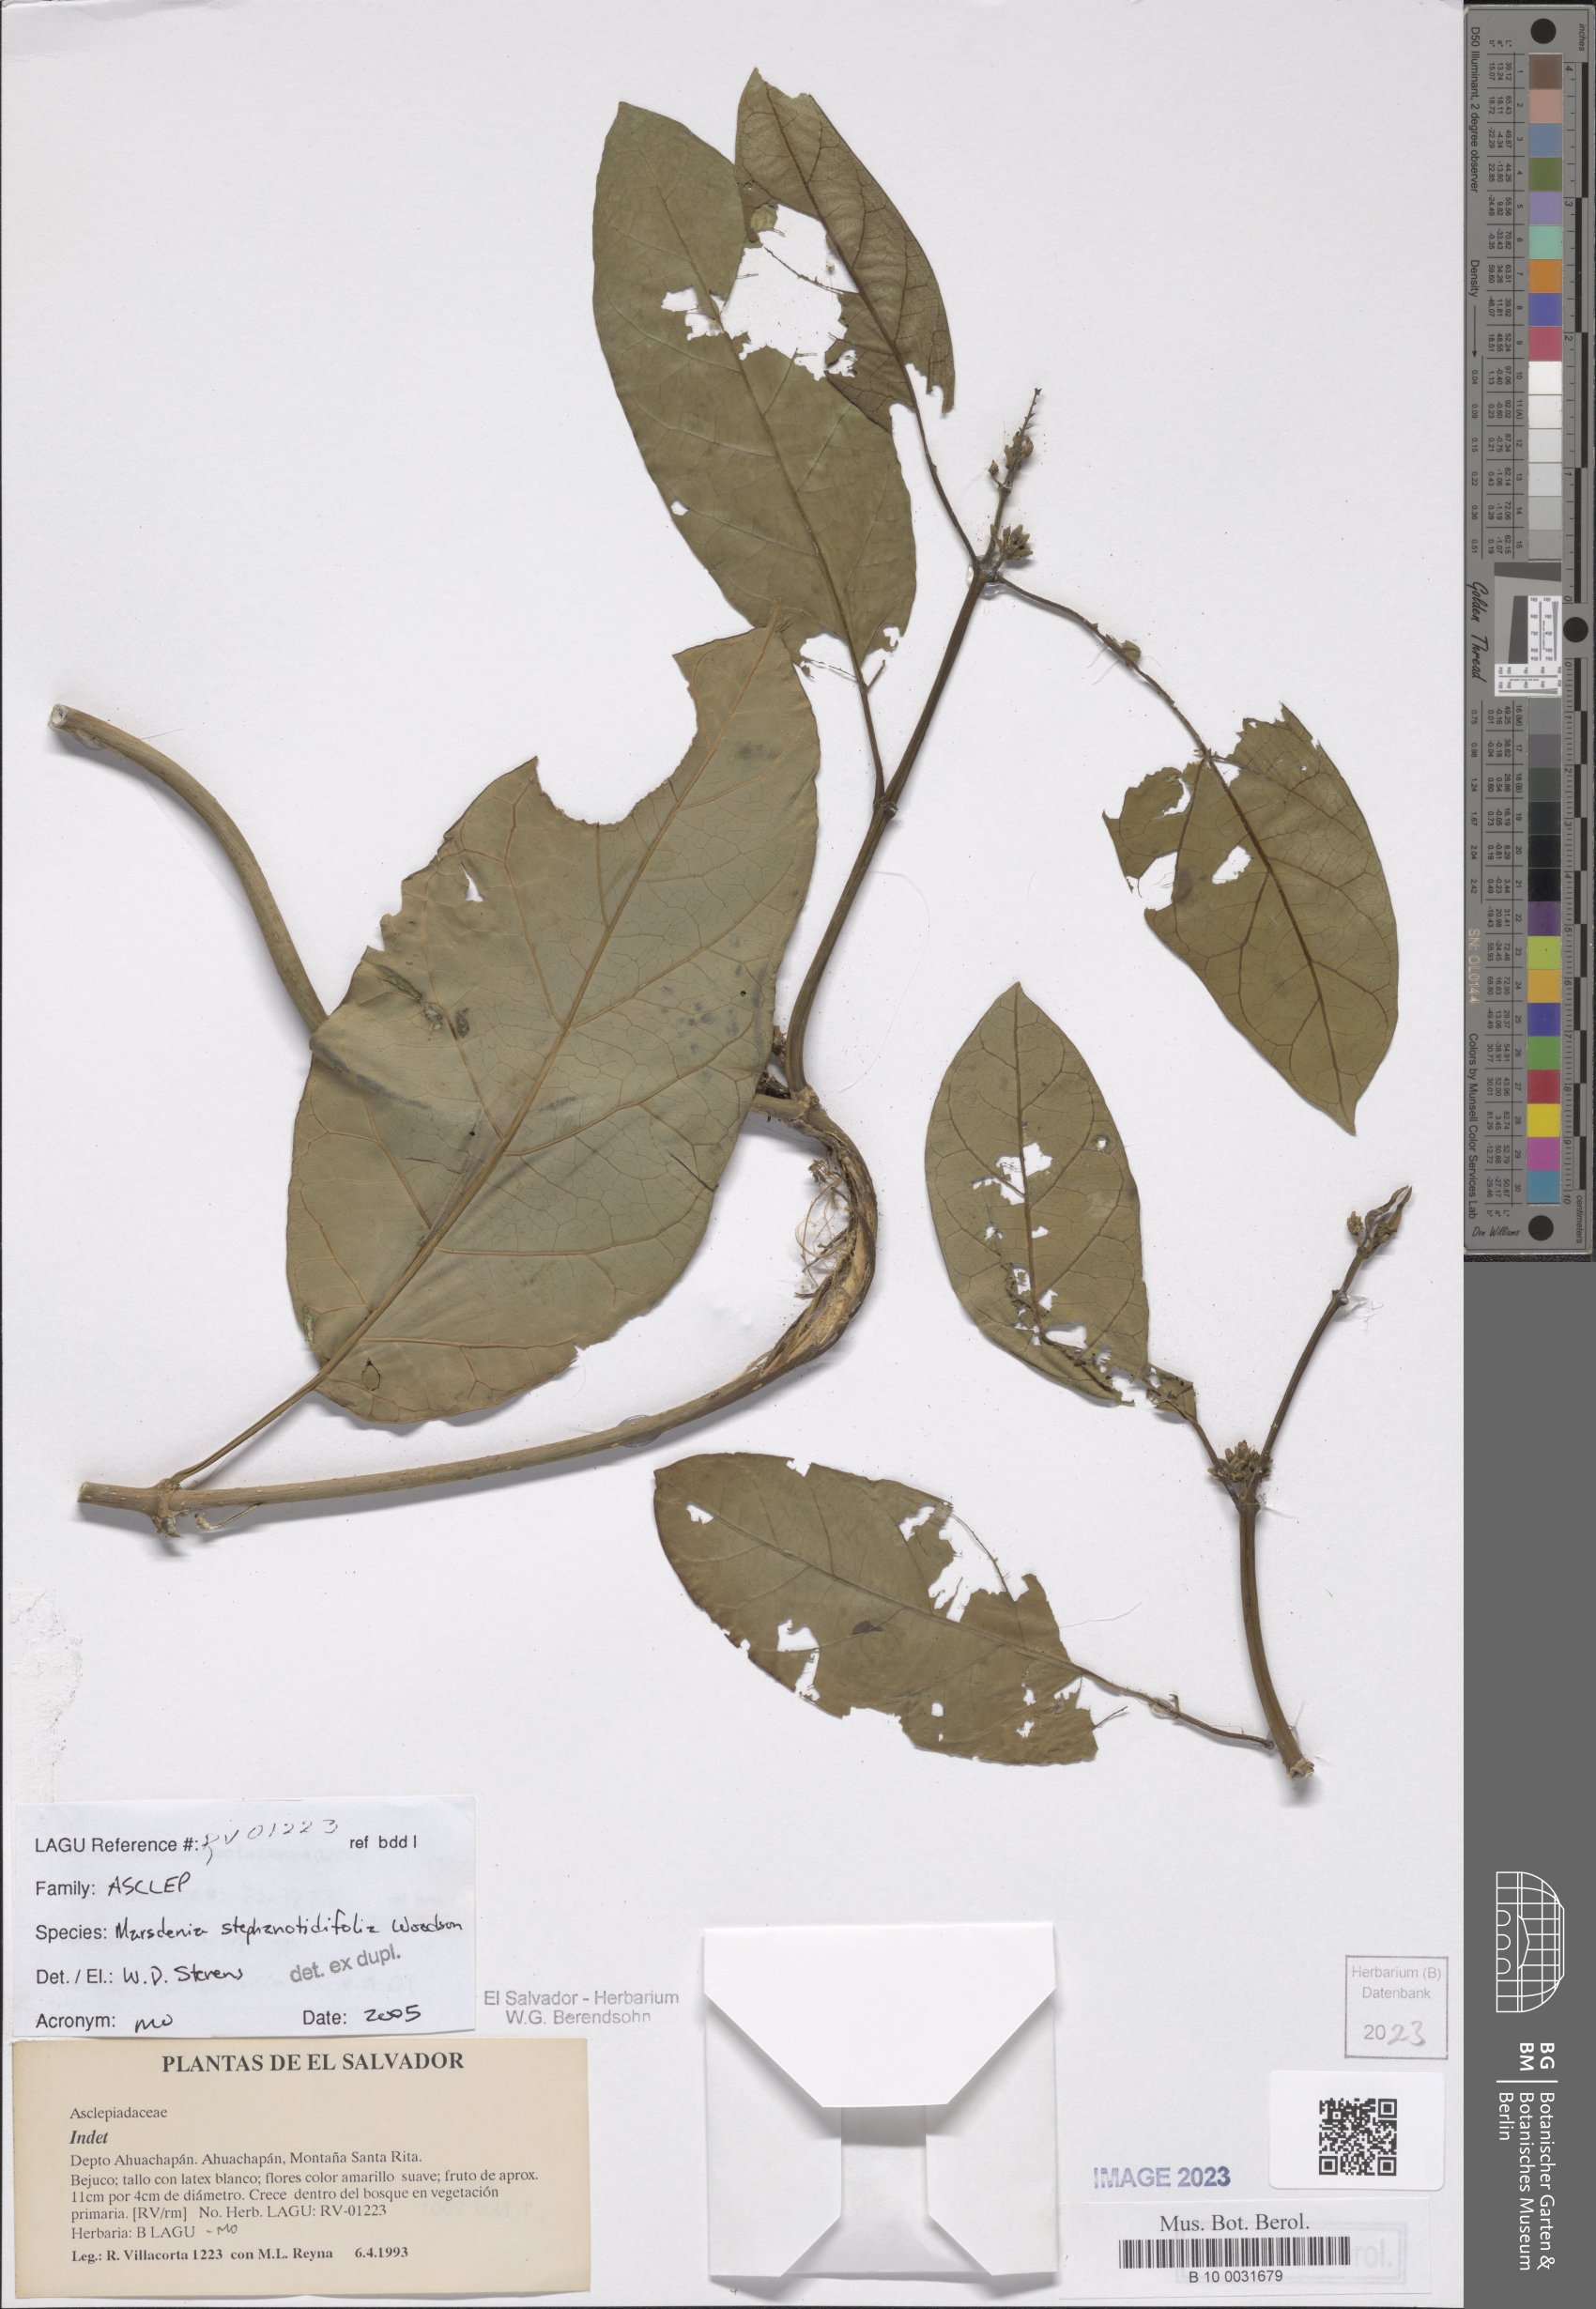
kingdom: Plantae
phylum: Tracheophyta
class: Magnoliopsida
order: Gentianales
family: Apocynaceae
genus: Ruehssia
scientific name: Ruehssia stephanotidifolia
